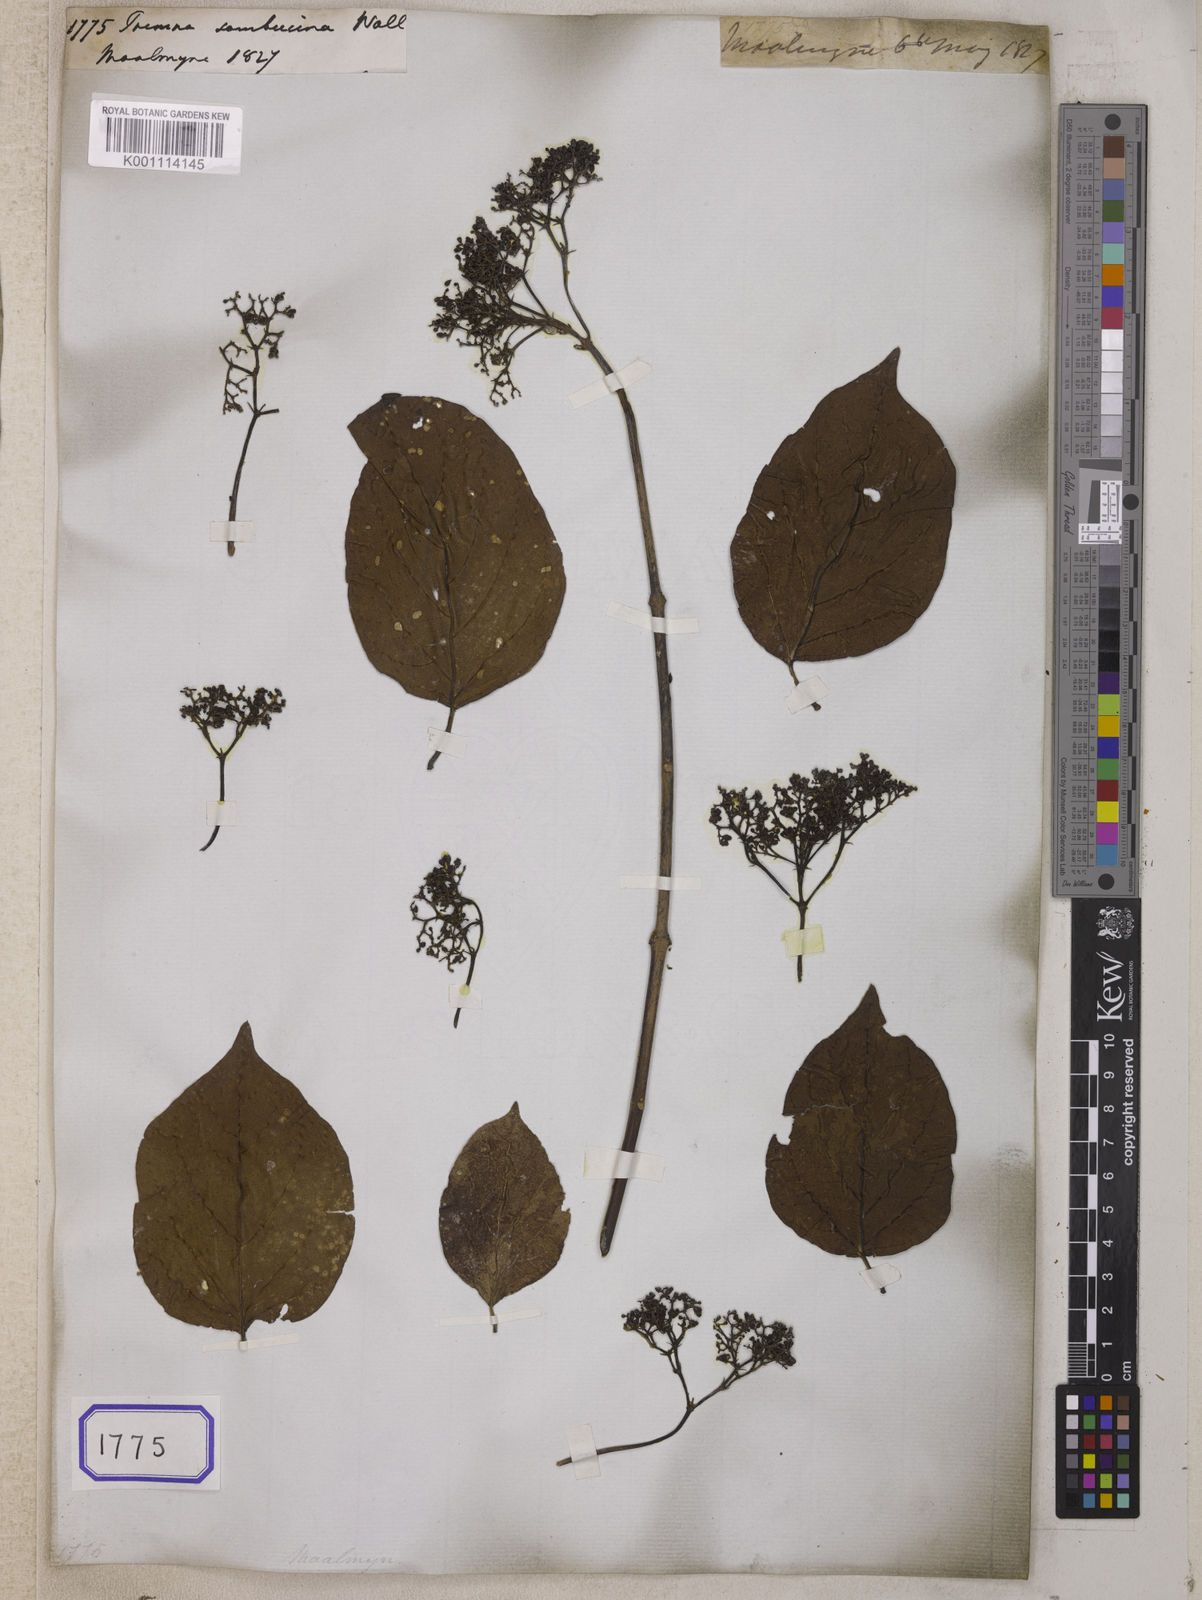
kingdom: Plantae
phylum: Tracheophyta
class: Magnoliopsida
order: Lamiales
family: Lamiaceae
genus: Premna
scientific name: Premna
